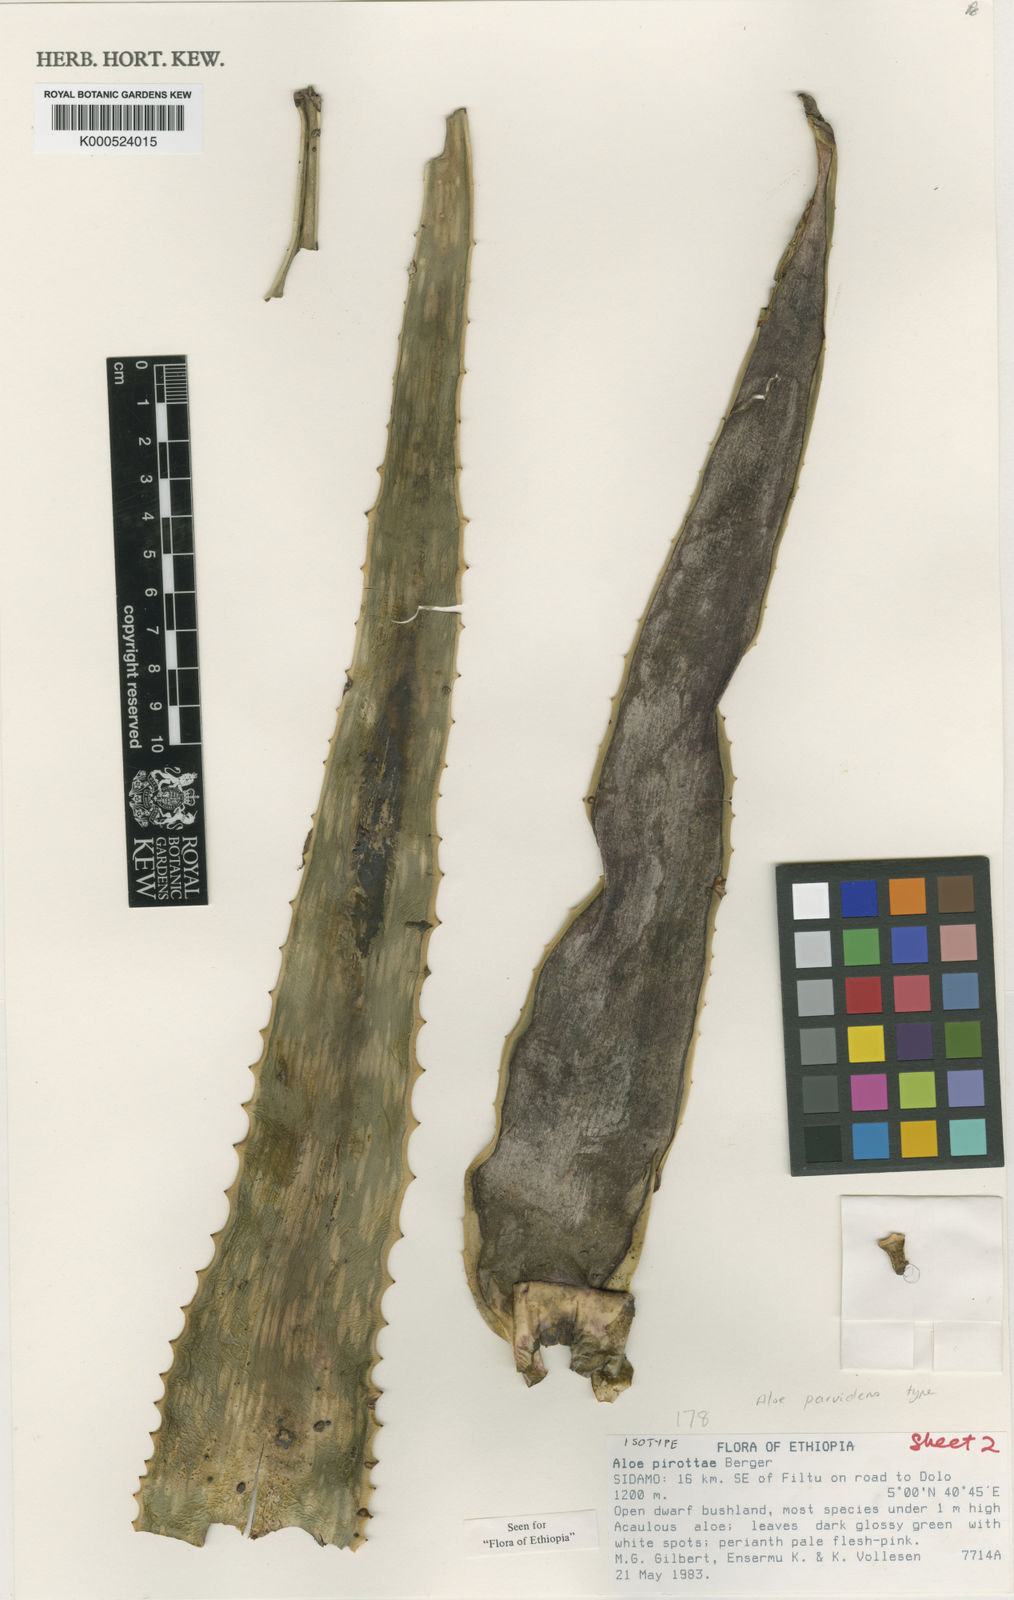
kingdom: Plantae
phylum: Tracheophyta
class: Liliopsida
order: Asparagales
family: Asphodelaceae
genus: Aloe
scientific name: Aloe parvidens
